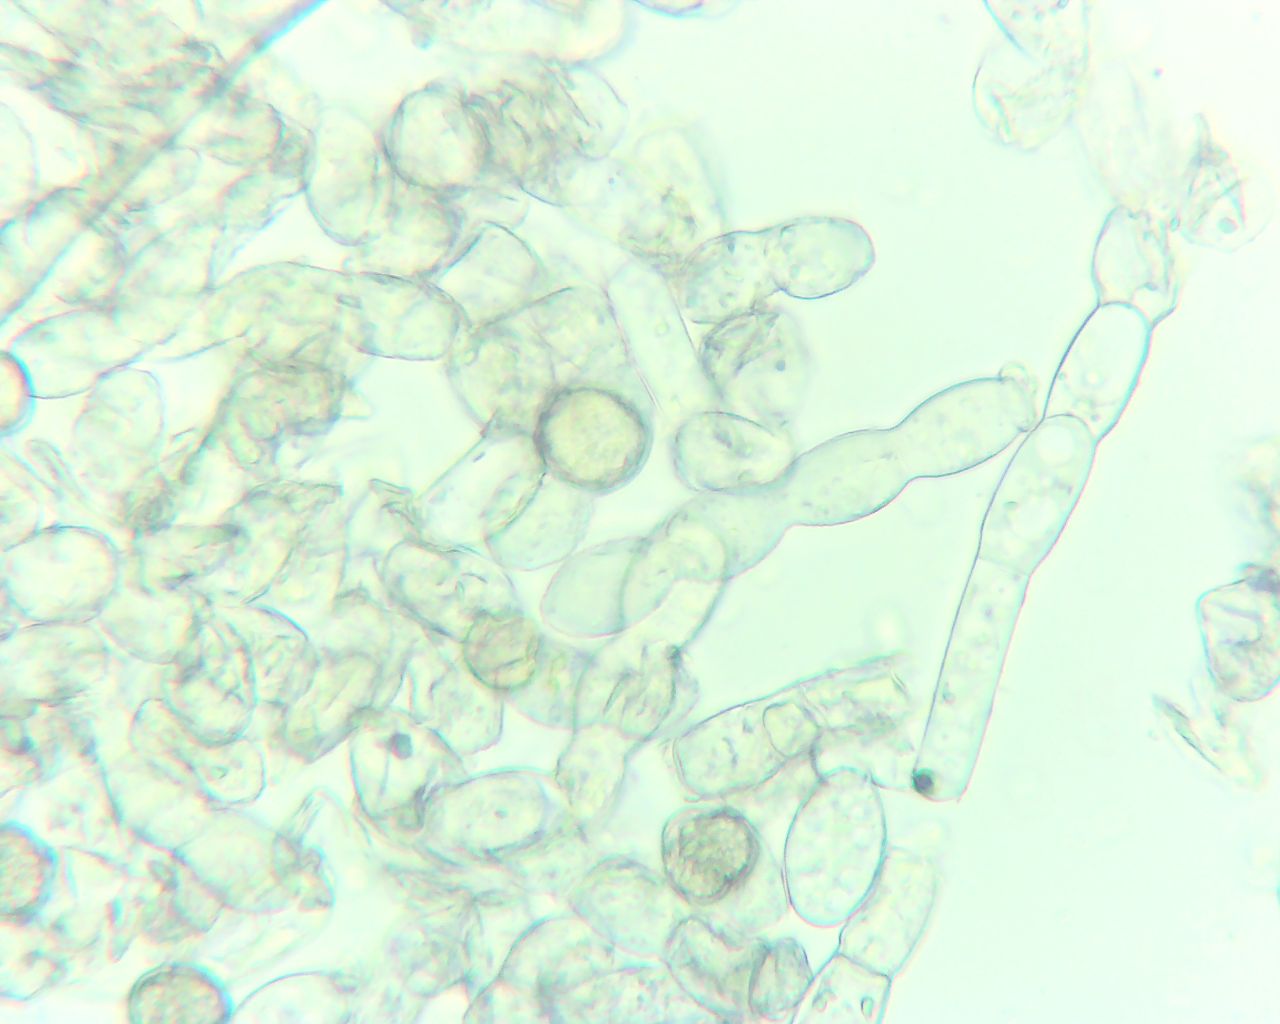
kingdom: Fungi
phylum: Ascomycota
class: Leotiomycetes
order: Helotiales
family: Erysiphaceae
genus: Podosphaera
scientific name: Podosphaera filipendulae
